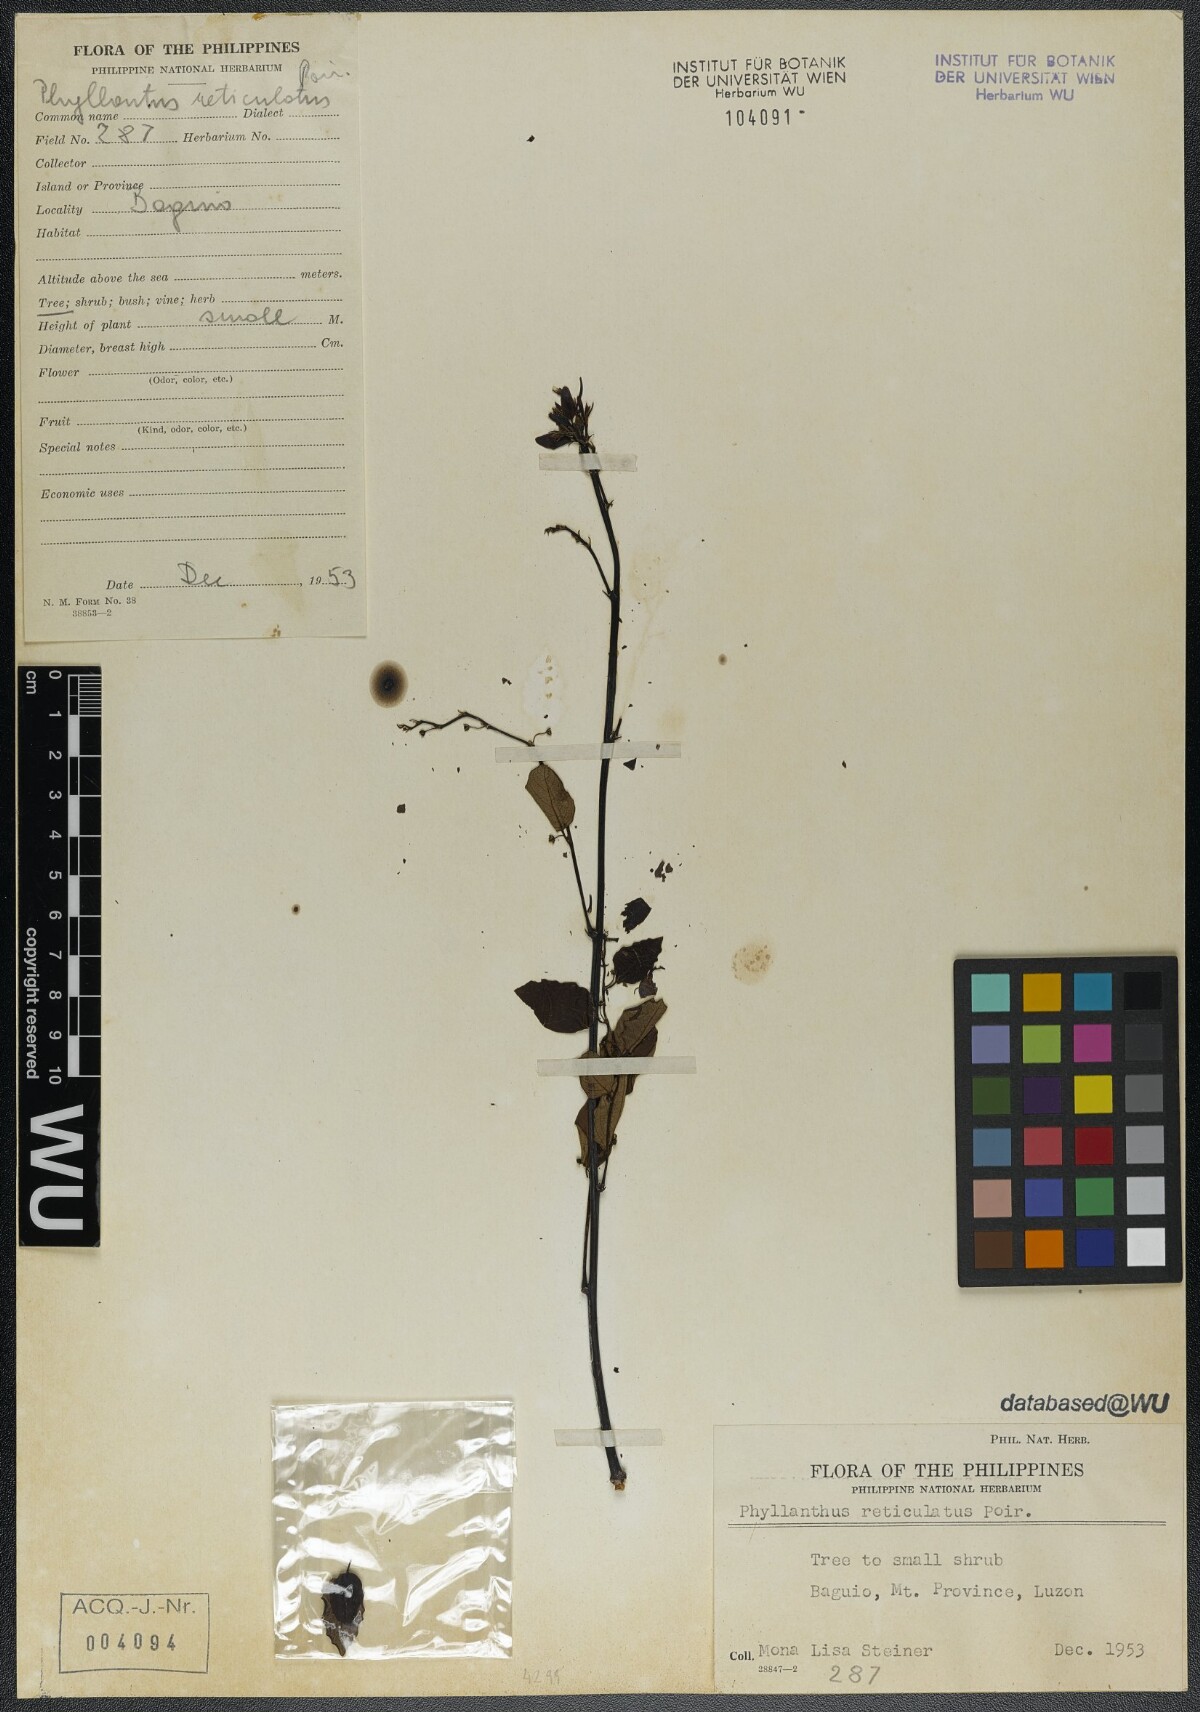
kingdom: Plantae
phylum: Tracheophyta
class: Magnoliopsida
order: Malpighiales
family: Phyllanthaceae
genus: Phyllanthus
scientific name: Phyllanthus reticulatus
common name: Potato bush
